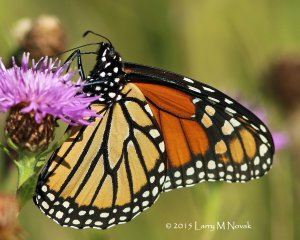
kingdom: Animalia
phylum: Arthropoda
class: Insecta
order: Lepidoptera
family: Nymphalidae
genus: Danaus
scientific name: Danaus plexippus
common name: Monarch
